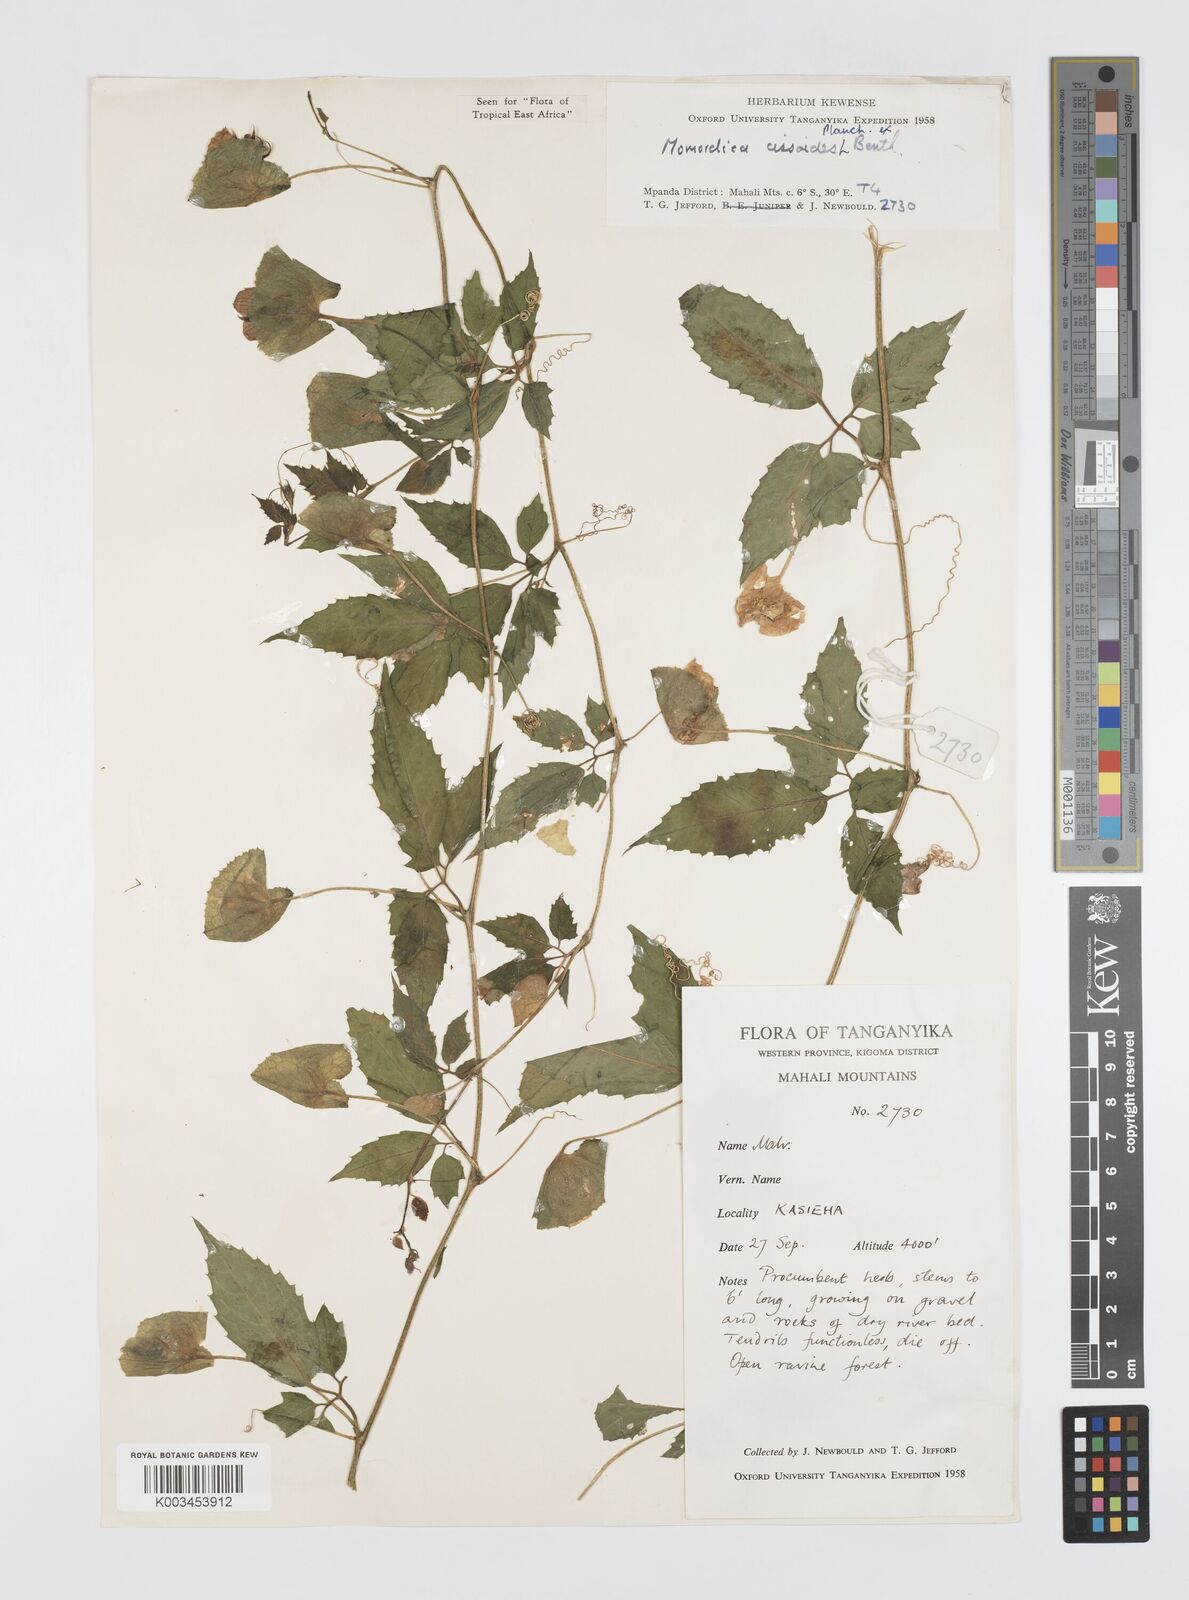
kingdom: Plantae
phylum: Tracheophyta
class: Magnoliopsida
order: Cucurbitales
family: Cucurbitaceae
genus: Momordica
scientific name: Momordica cissoides
